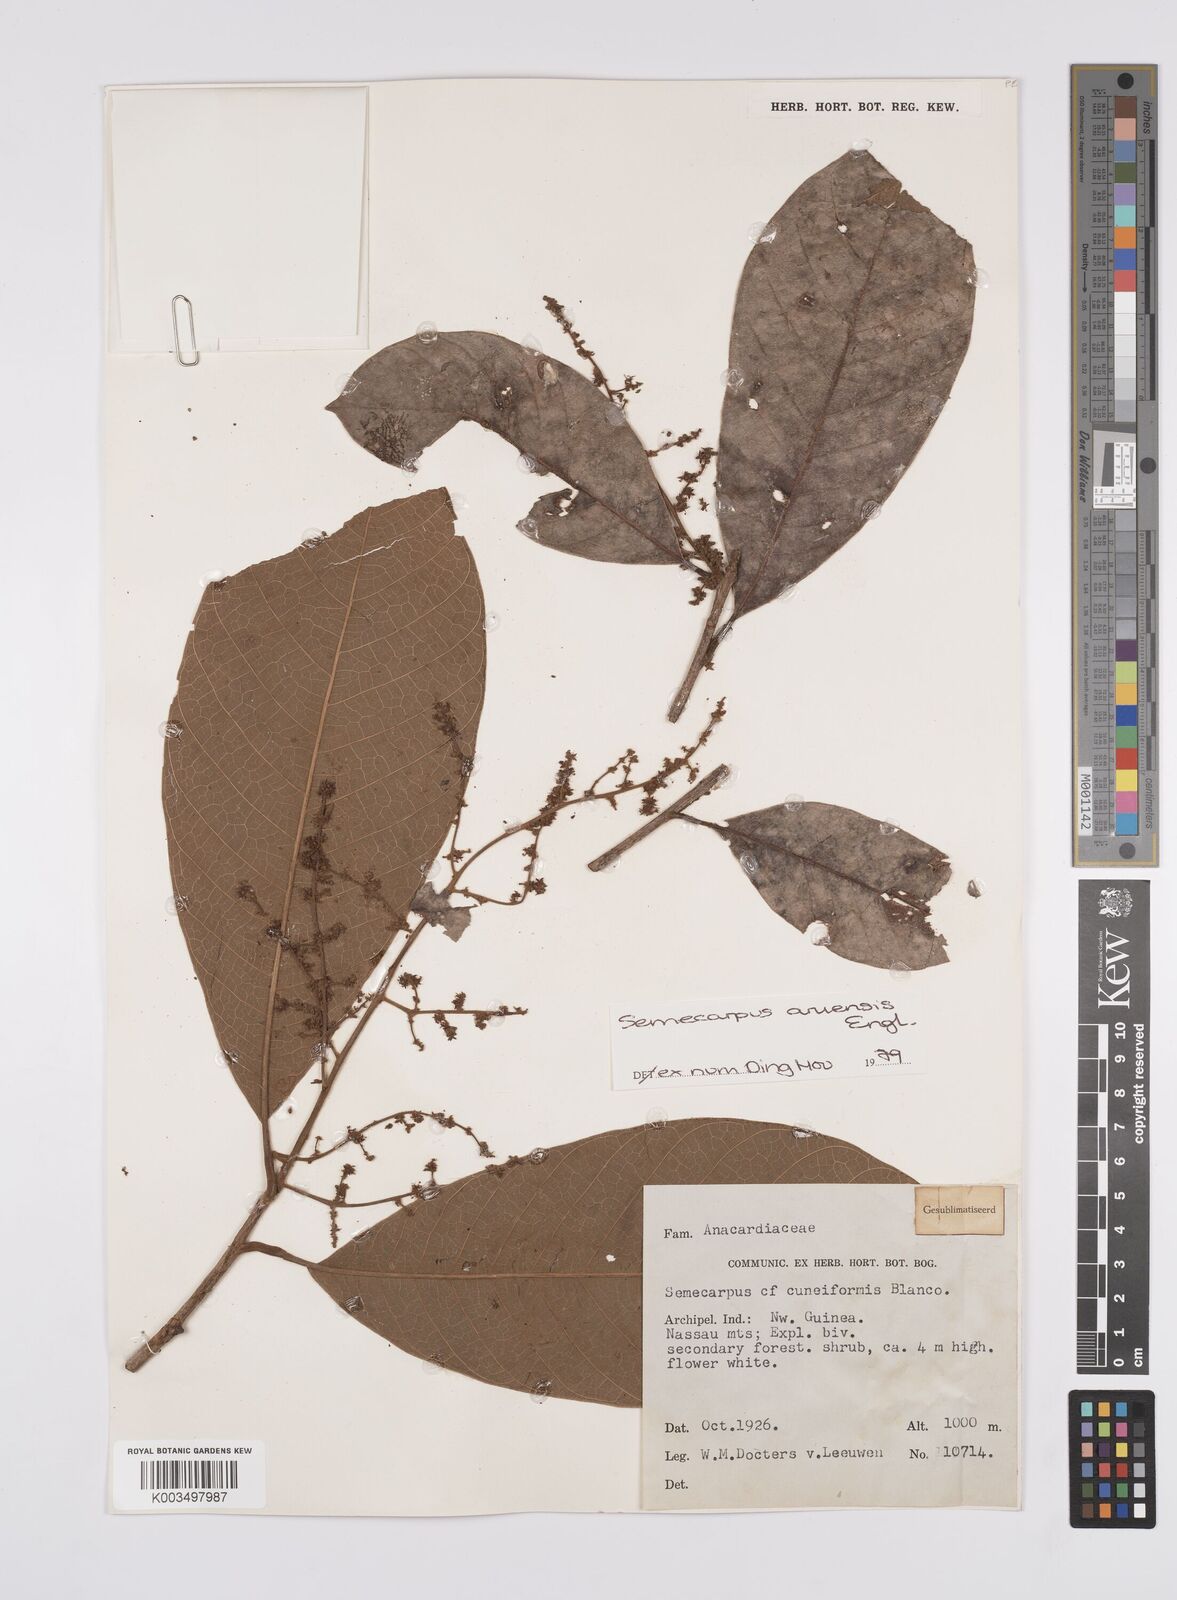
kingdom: Plantae
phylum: Tracheophyta
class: Magnoliopsida
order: Sapindales
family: Anacardiaceae
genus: Semecarpus
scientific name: Semecarpus aruensis
